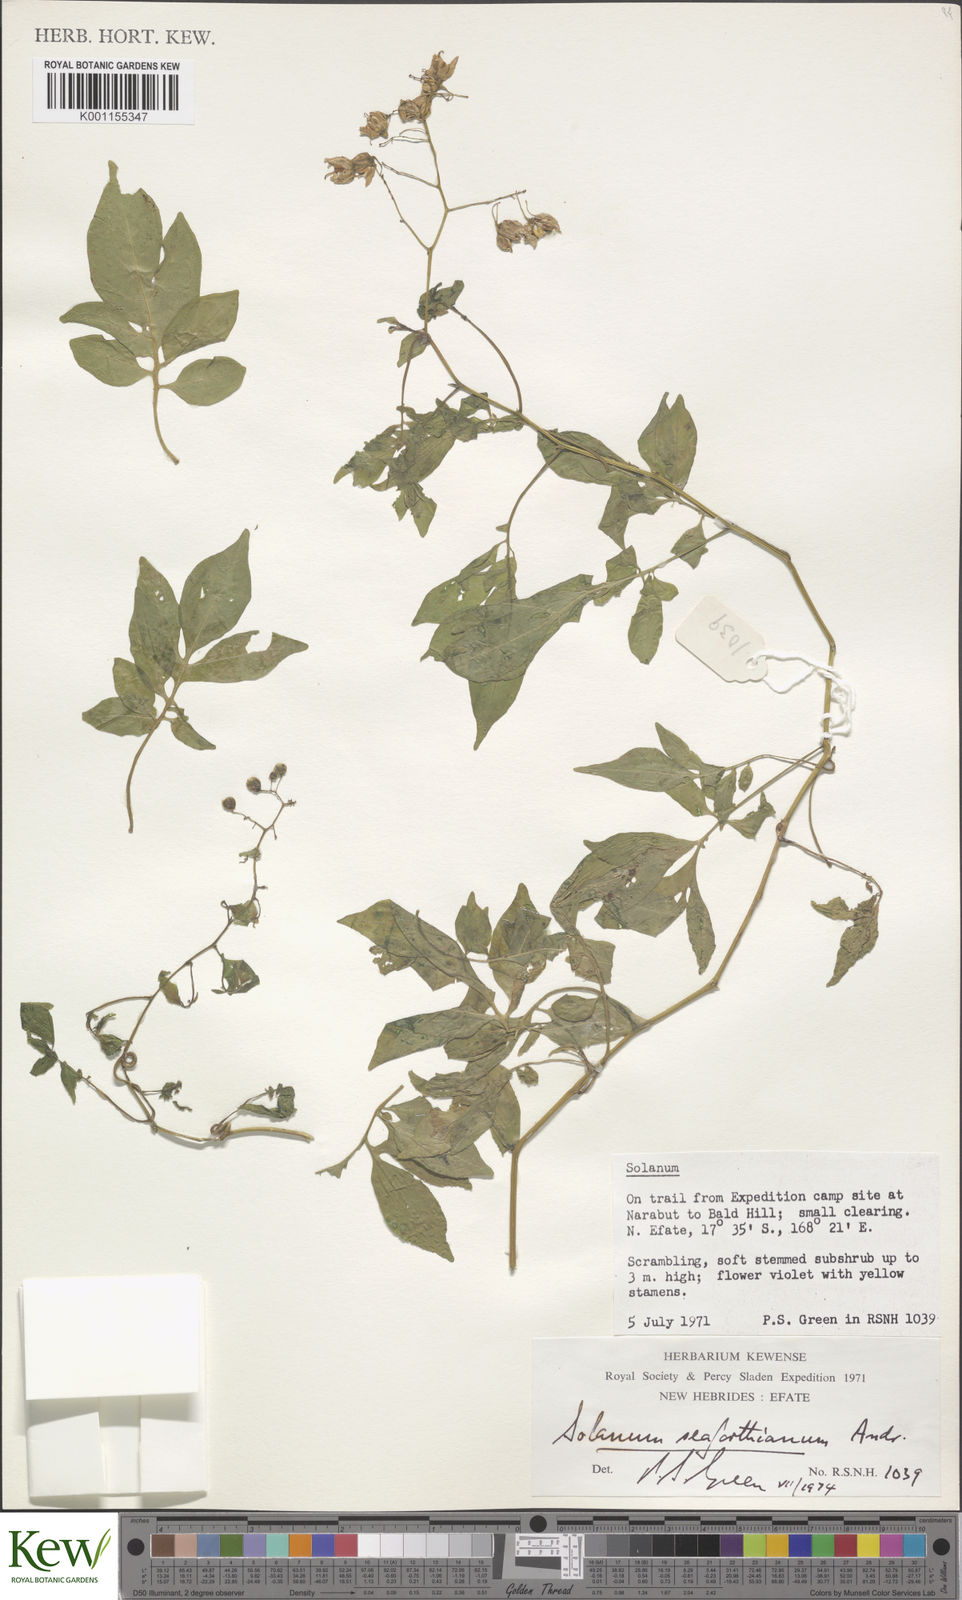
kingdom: Plantae
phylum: Tracheophyta
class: Magnoliopsida
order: Solanales
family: Solanaceae
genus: Solanum
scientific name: Solanum seaforthianum
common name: Brazilian nightshade
